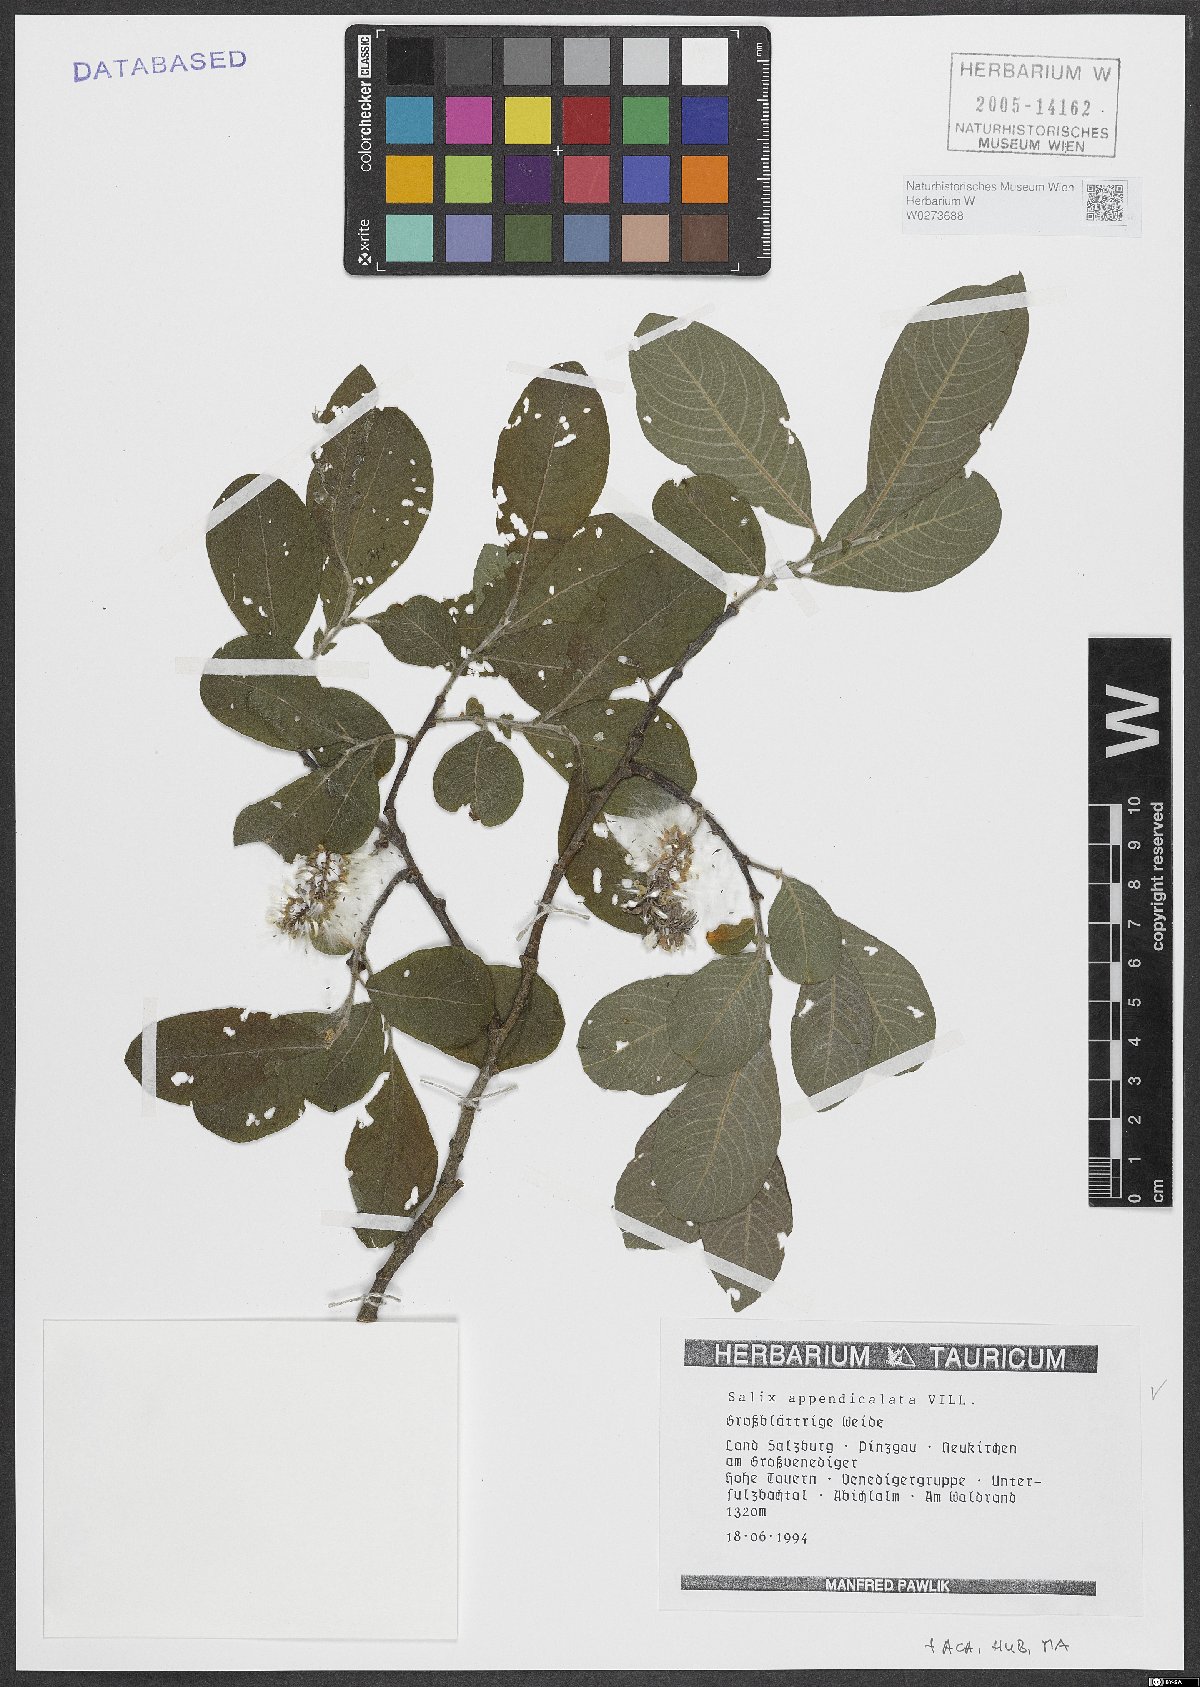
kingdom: Plantae
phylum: Tracheophyta
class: Magnoliopsida
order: Malpighiales
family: Salicaceae
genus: Salix
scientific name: Salix appendiculata
